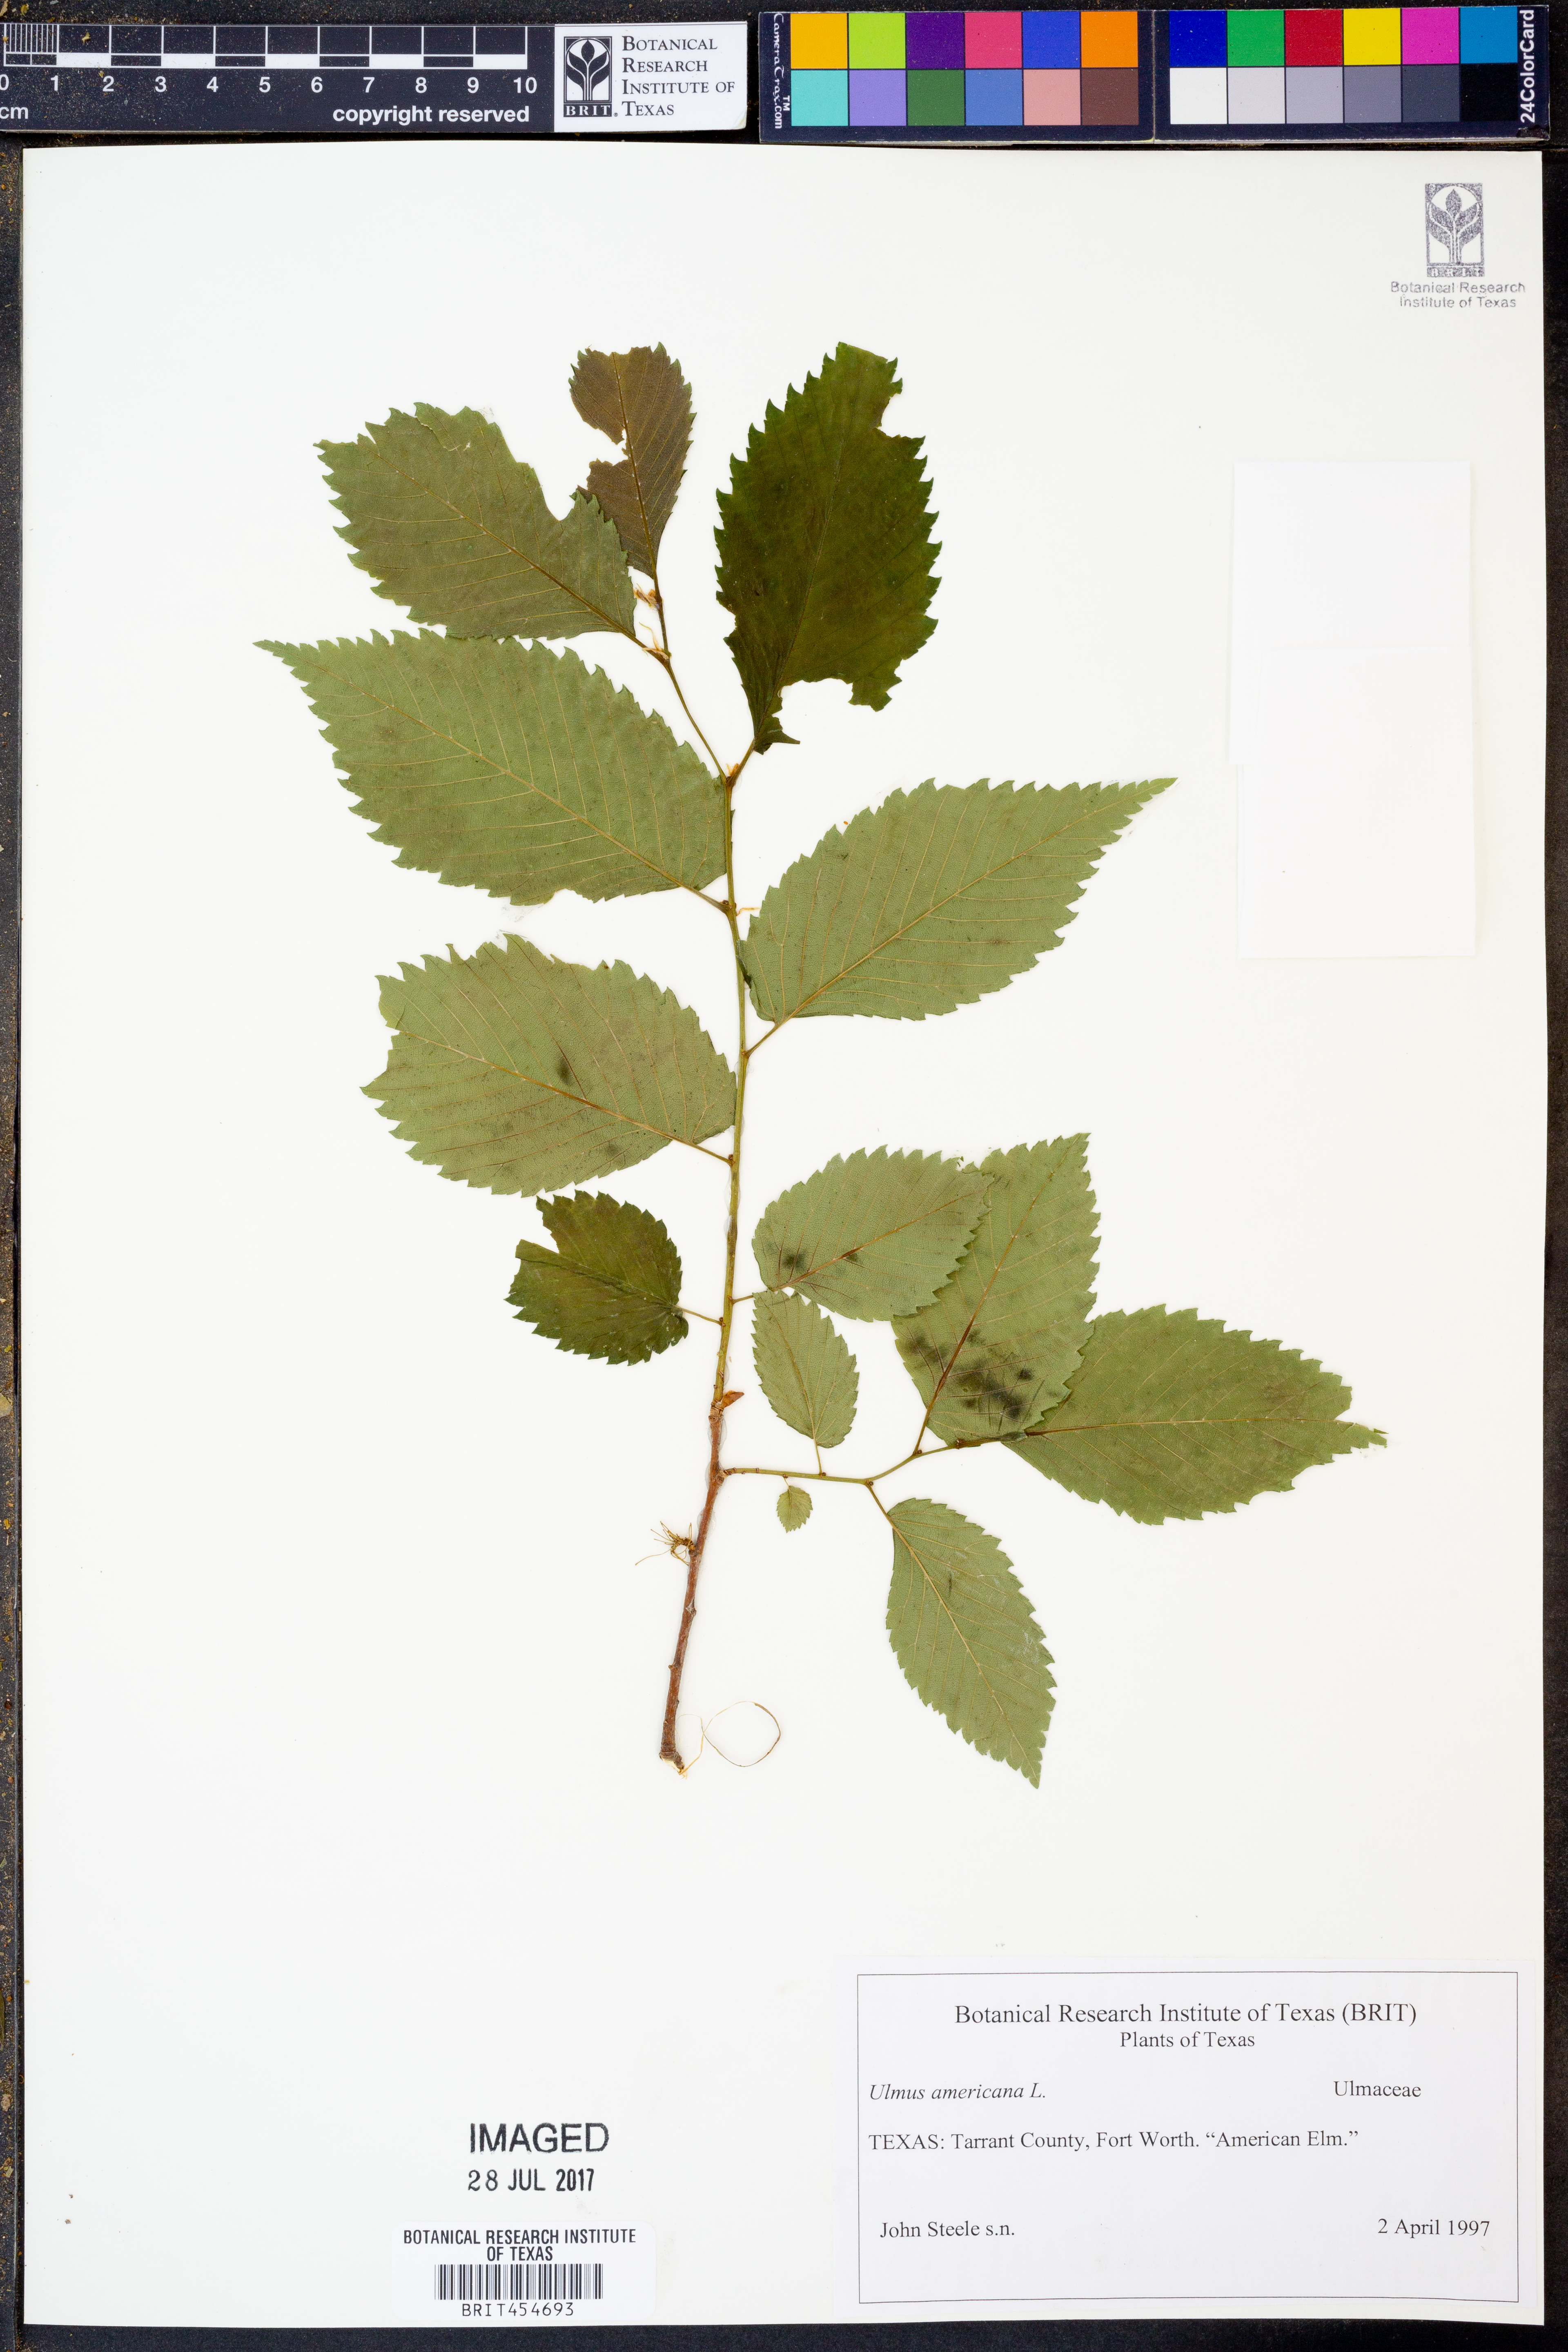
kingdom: Plantae
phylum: Tracheophyta
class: Magnoliopsida
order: Rosales
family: Ulmaceae
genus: Ulmus
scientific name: Ulmus americana
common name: American elm
